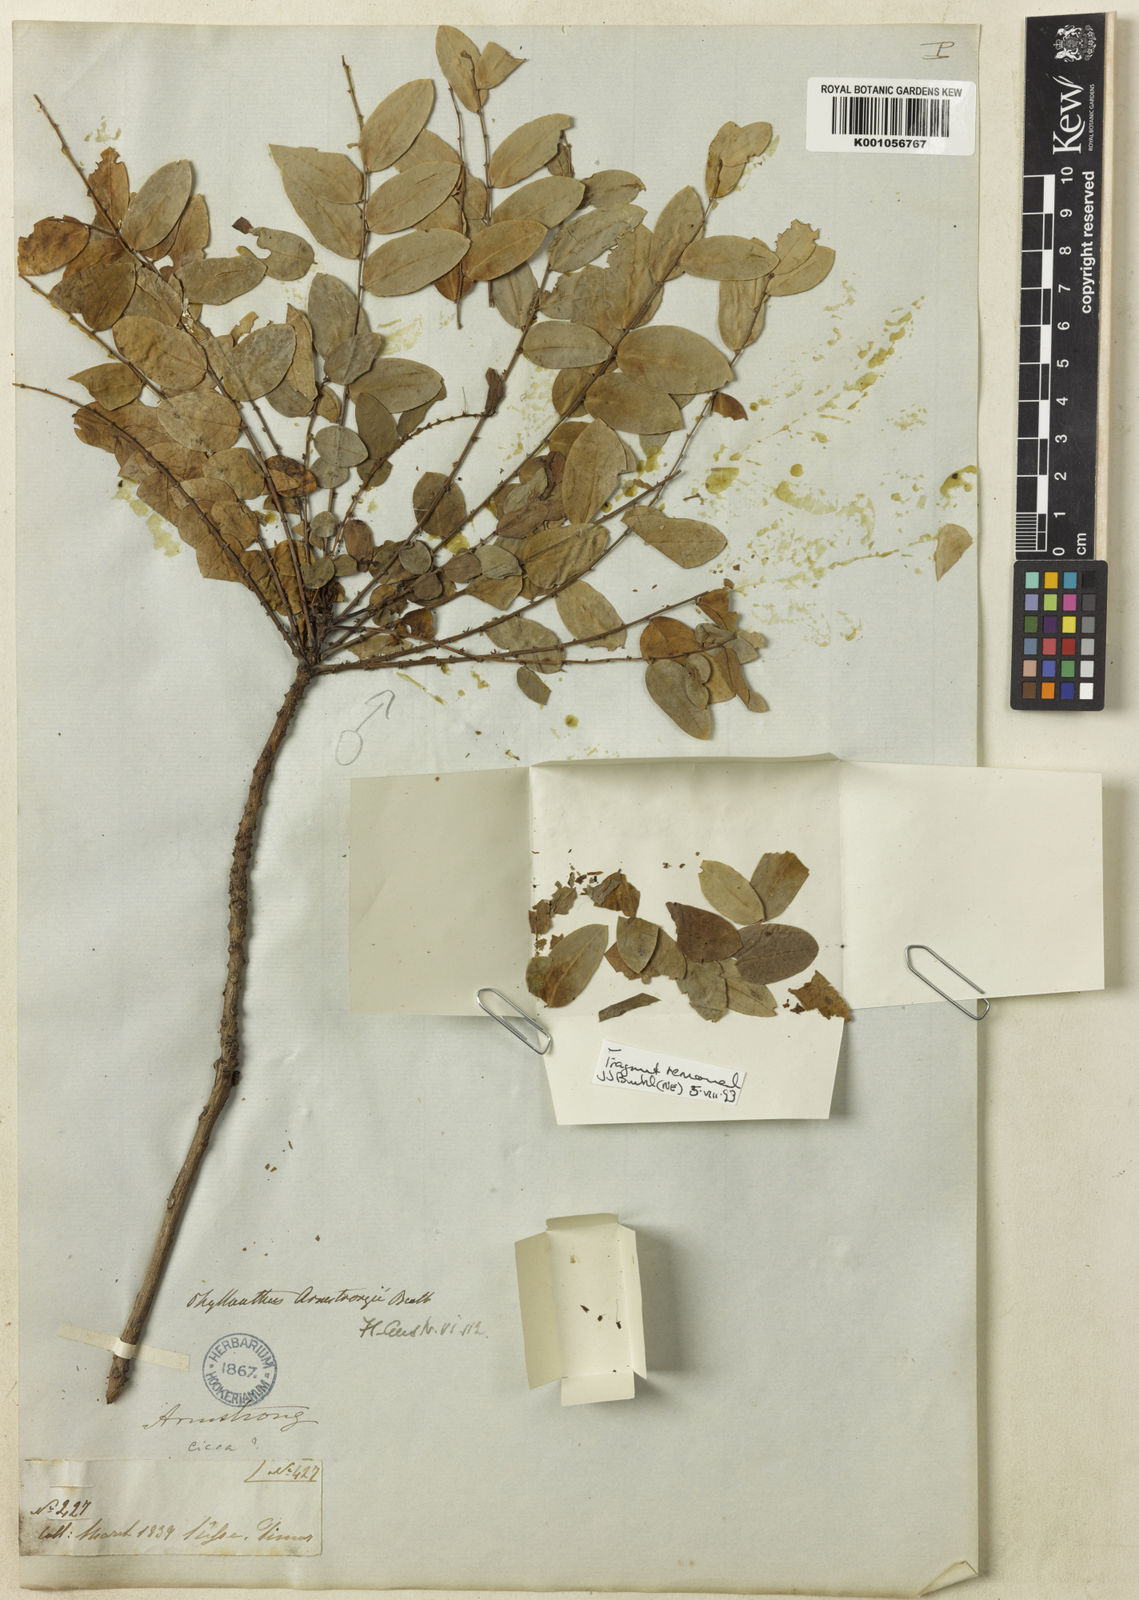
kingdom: Plantae
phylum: Tracheophyta
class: Magnoliopsida
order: Malpighiales
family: Phyllanthaceae
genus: Phyllanthus
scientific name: Phyllanthus armstrongii
